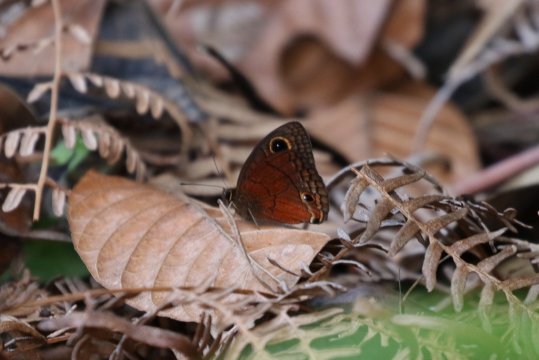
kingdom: Animalia
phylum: Arthropoda
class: Insecta
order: Lepidoptera
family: Nymphalidae
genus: Calisto
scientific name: Calisto nubila
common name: Puerto Rican Calisto
